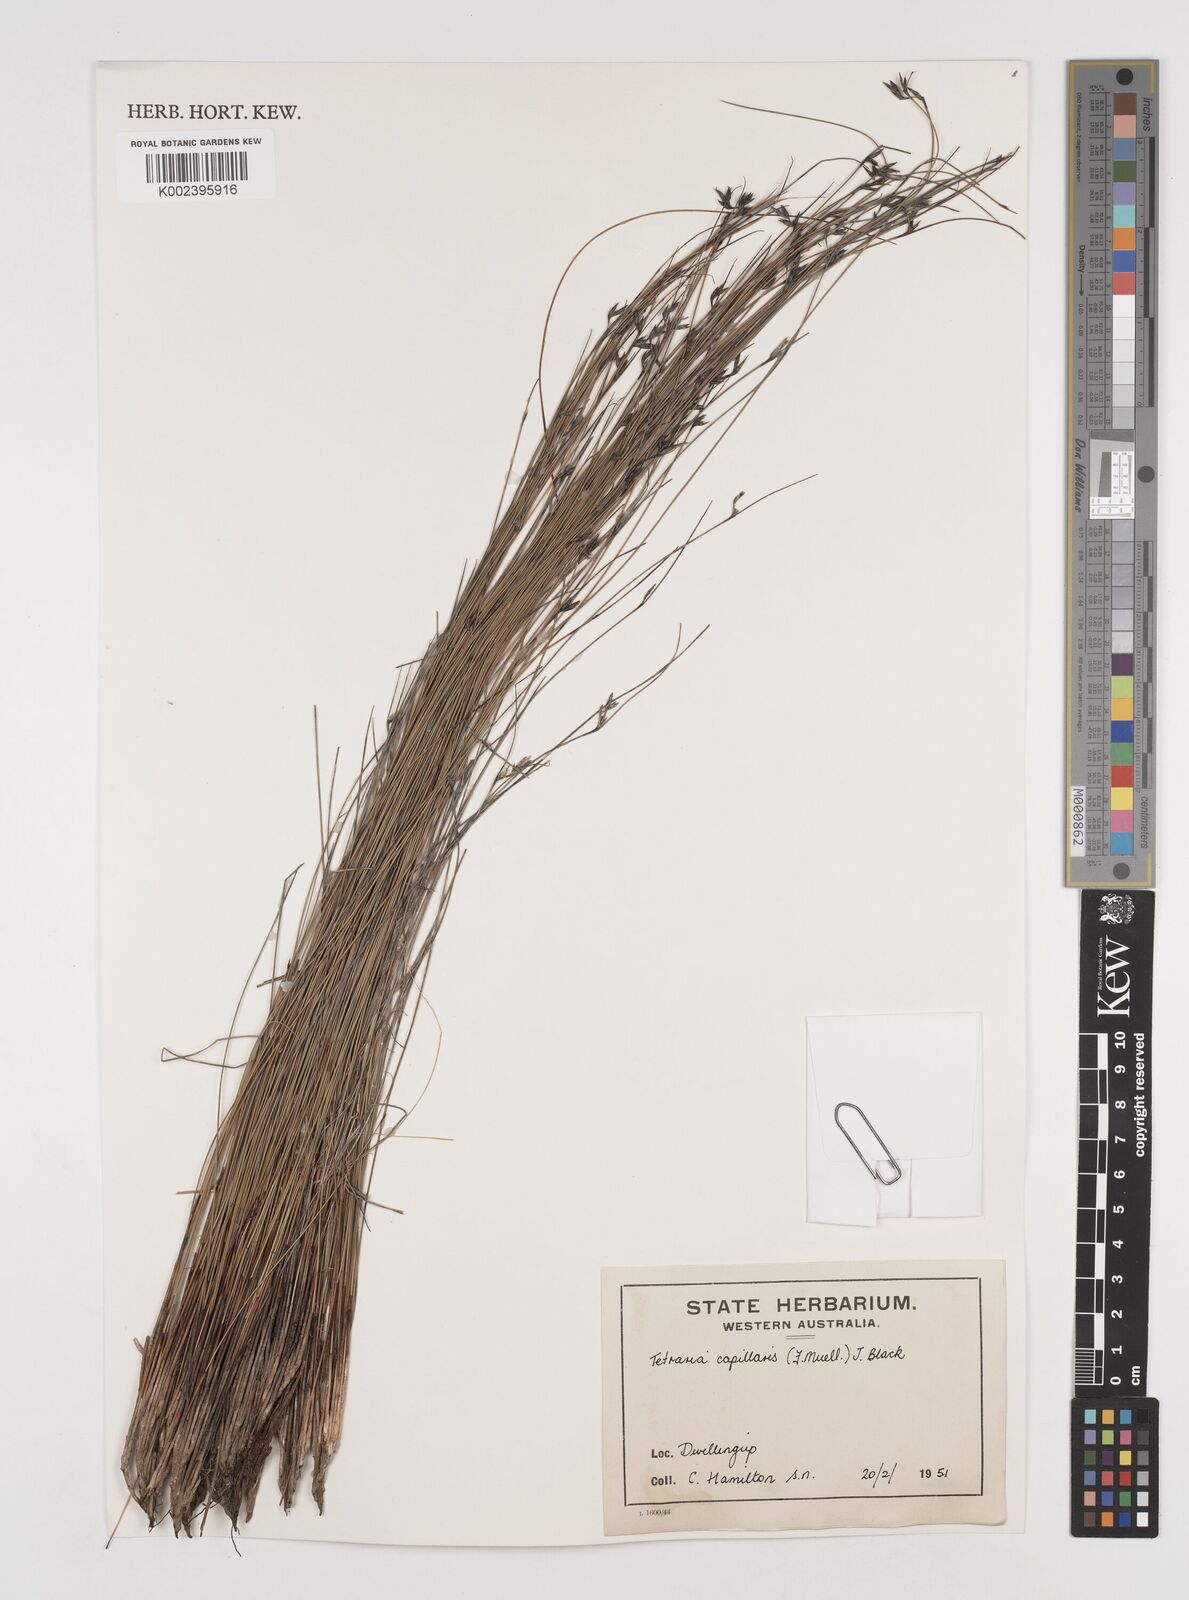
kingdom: Plantae
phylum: Tracheophyta
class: Liliopsida
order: Poales
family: Cyperaceae
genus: Tetraria
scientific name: Tetraria capillaris
